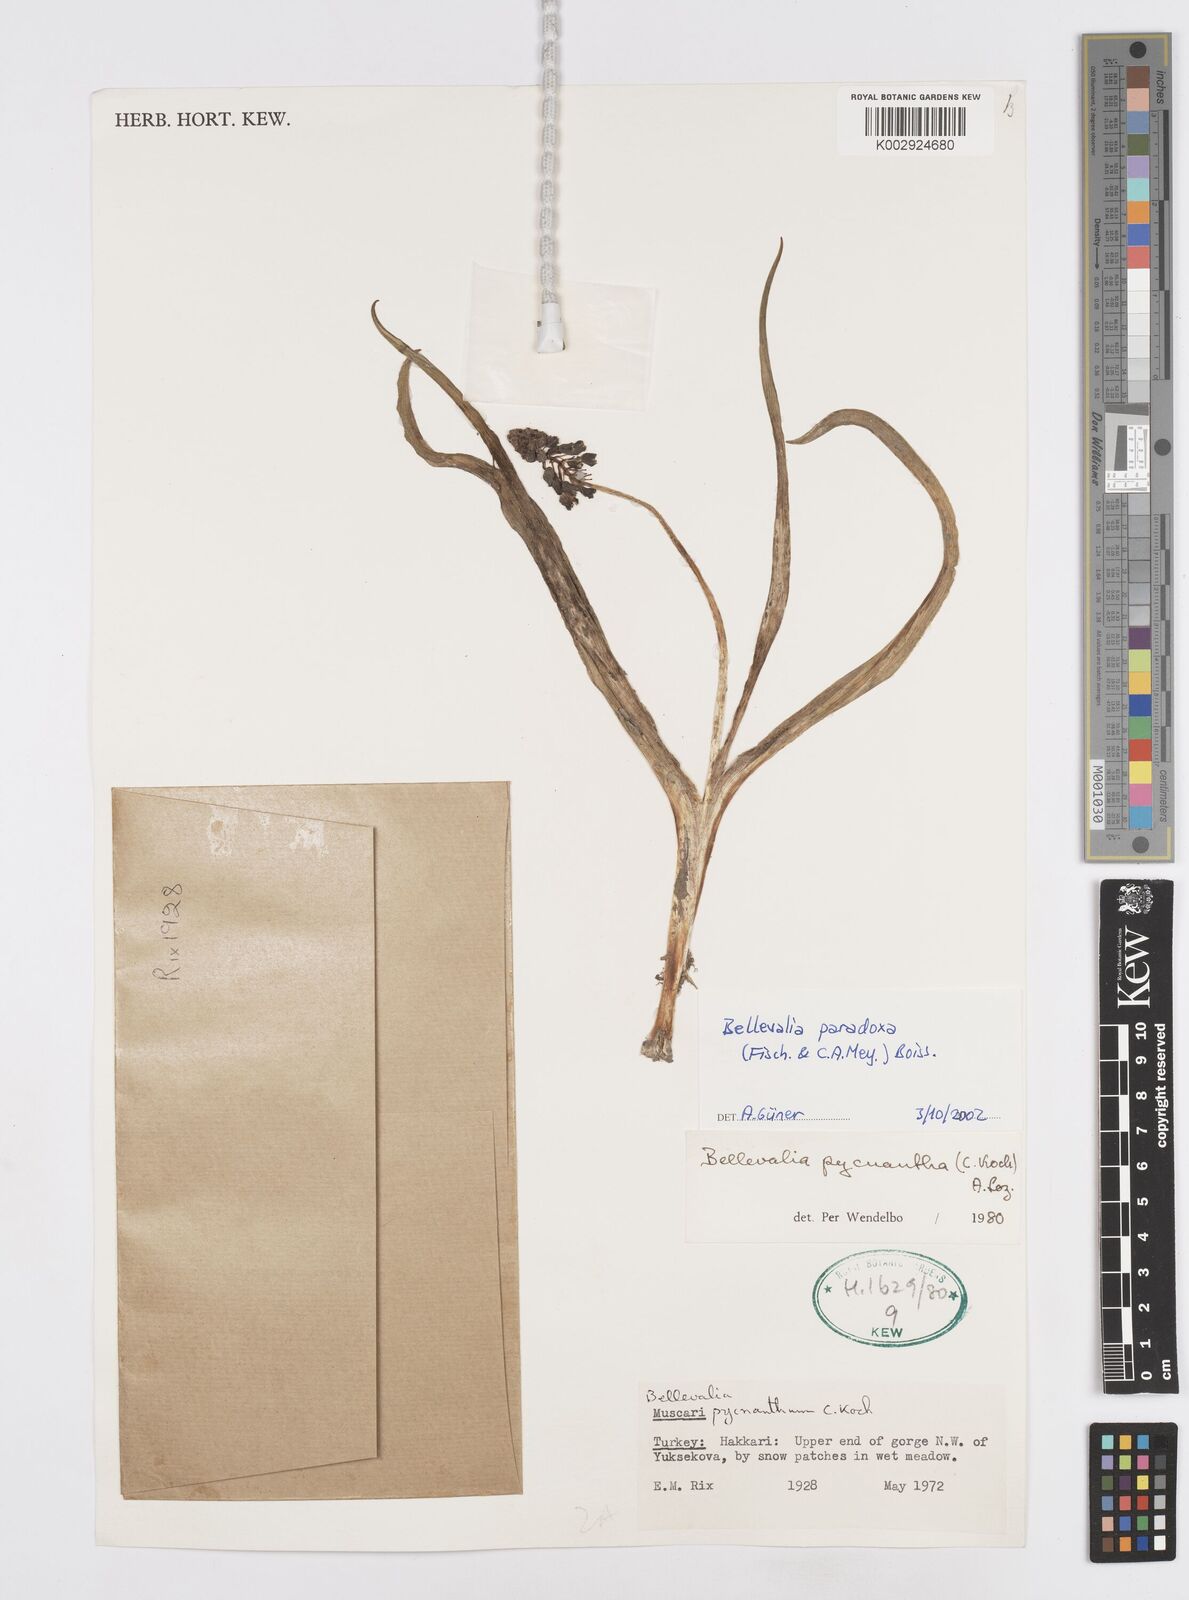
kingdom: Plantae
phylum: Tracheophyta
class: Liliopsida
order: Asparagales
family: Asparagaceae
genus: Bellevalia
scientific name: Bellevalia paradoxa
